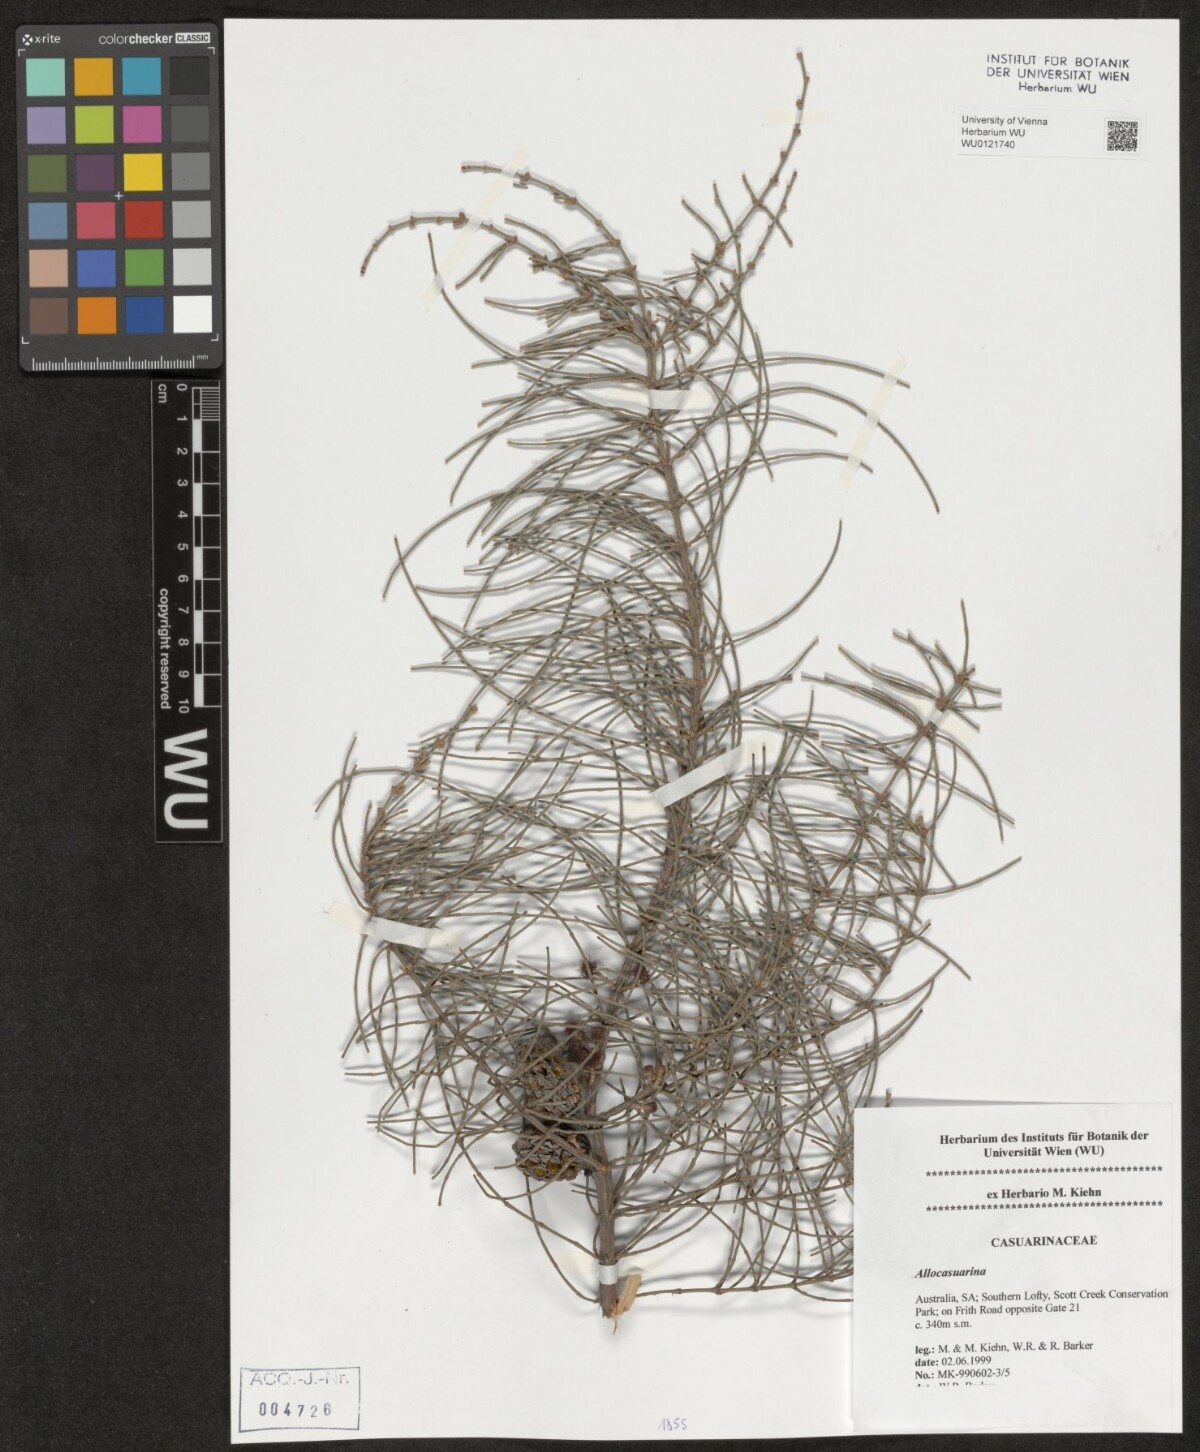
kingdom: Plantae
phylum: Tracheophyta
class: Magnoliopsida
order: Fagales
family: Casuarinaceae
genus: Casuarina
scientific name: Casuarina
